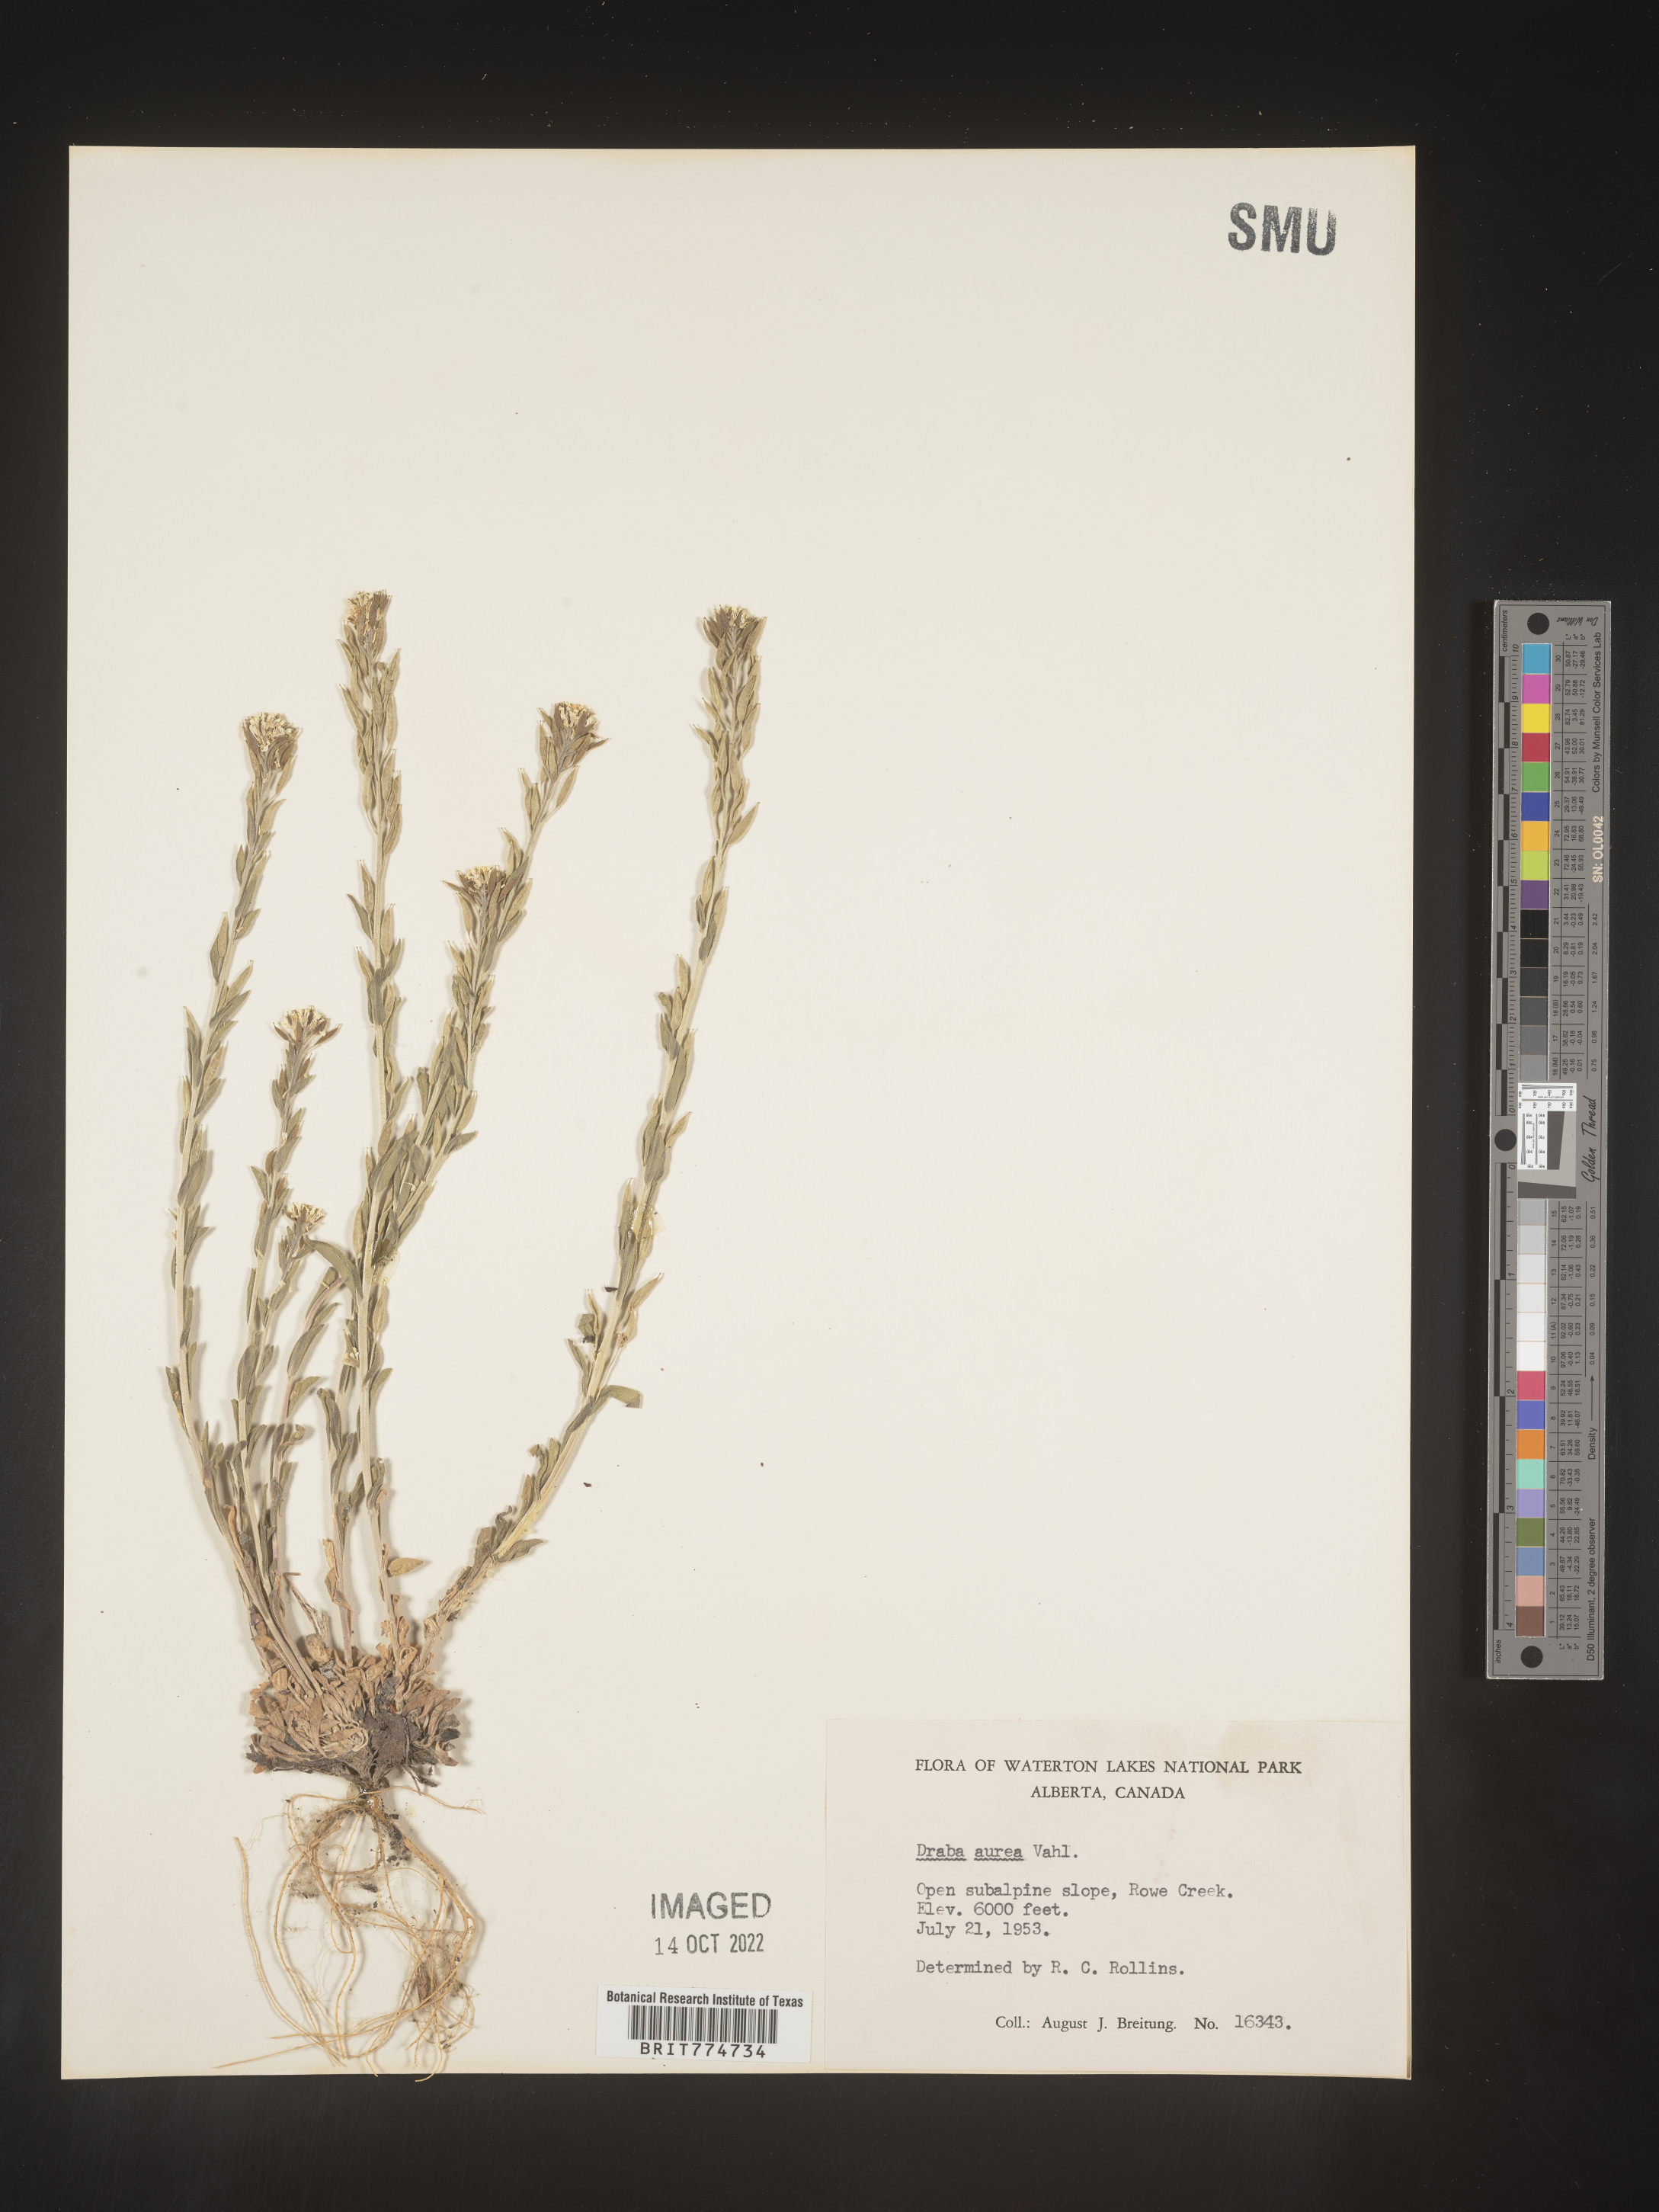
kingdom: Plantae
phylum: Tracheophyta
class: Magnoliopsida
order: Brassicales
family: Brassicaceae
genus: Draba
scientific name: Draba
